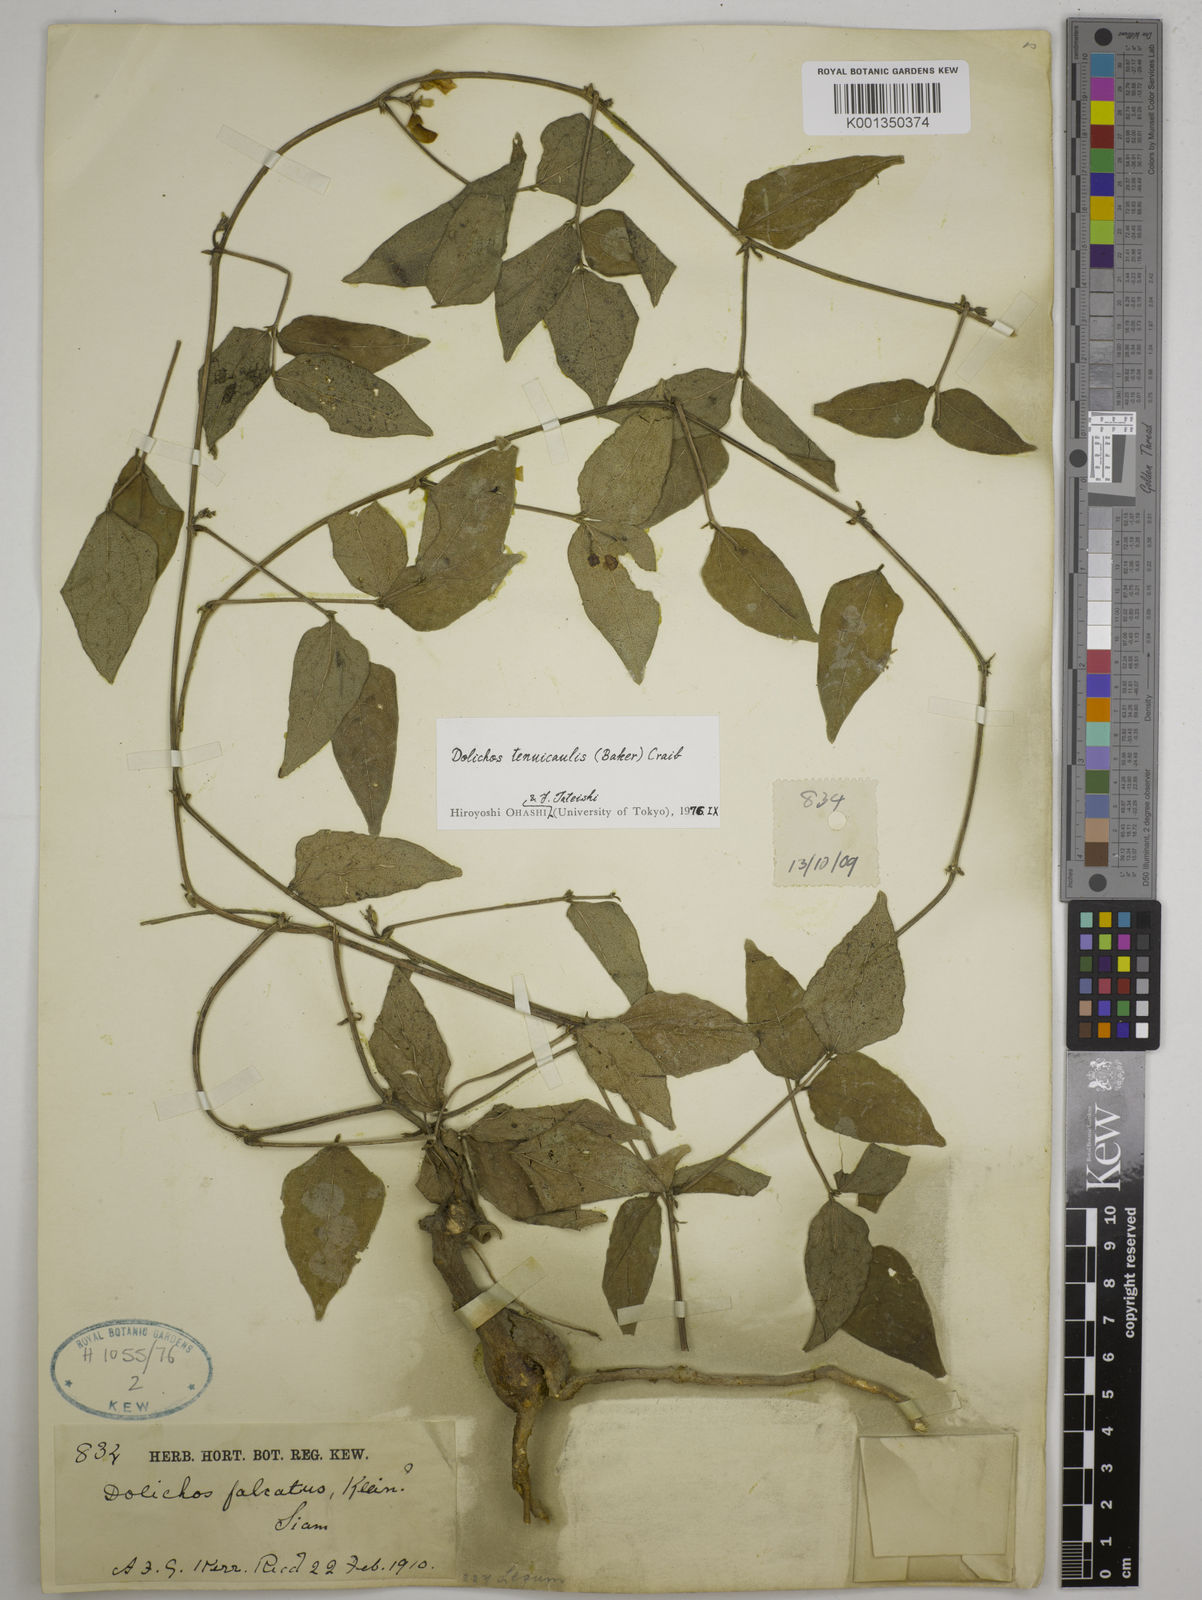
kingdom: Plantae
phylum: Tracheophyta
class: Magnoliopsida
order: Fabales
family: Fabaceae
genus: Dolichos
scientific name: Dolichos tenuicaulis
